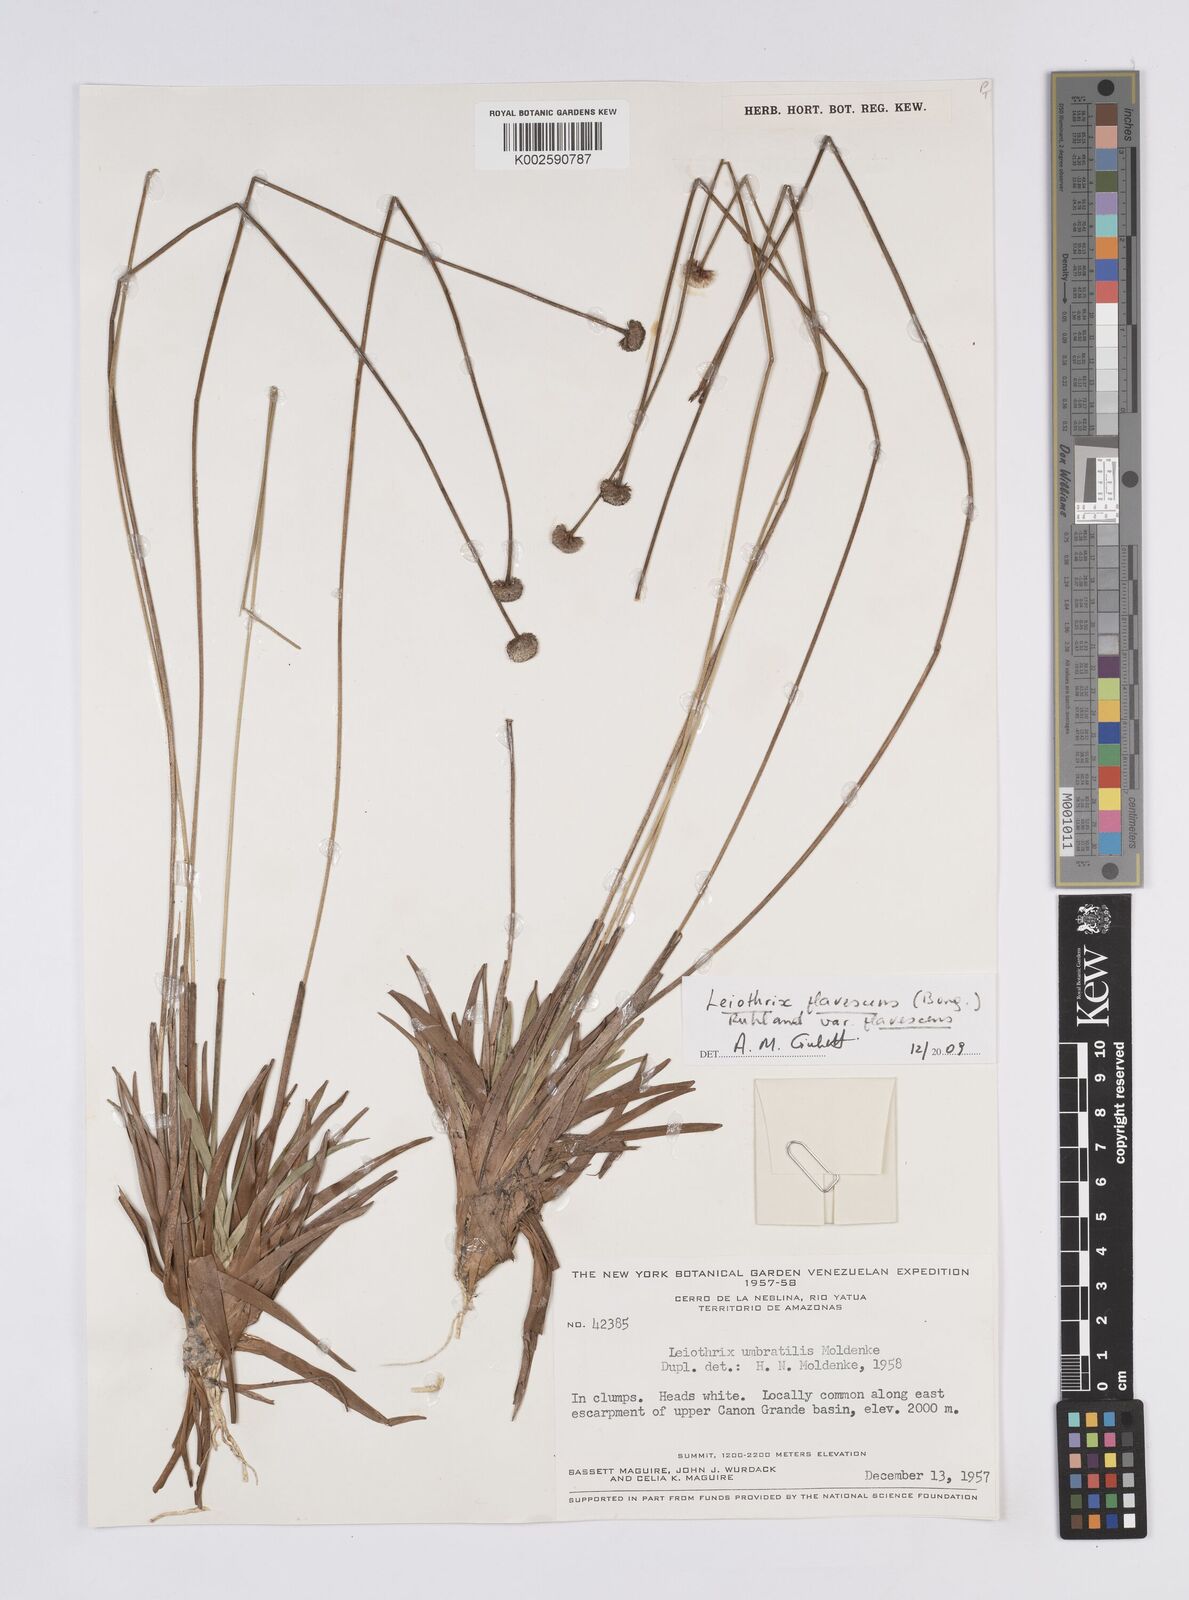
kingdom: Plantae
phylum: Tracheophyta
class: Liliopsida
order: Poales
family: Eriocaulaceae
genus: Leiothrix
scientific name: Leiothrix flavescens
